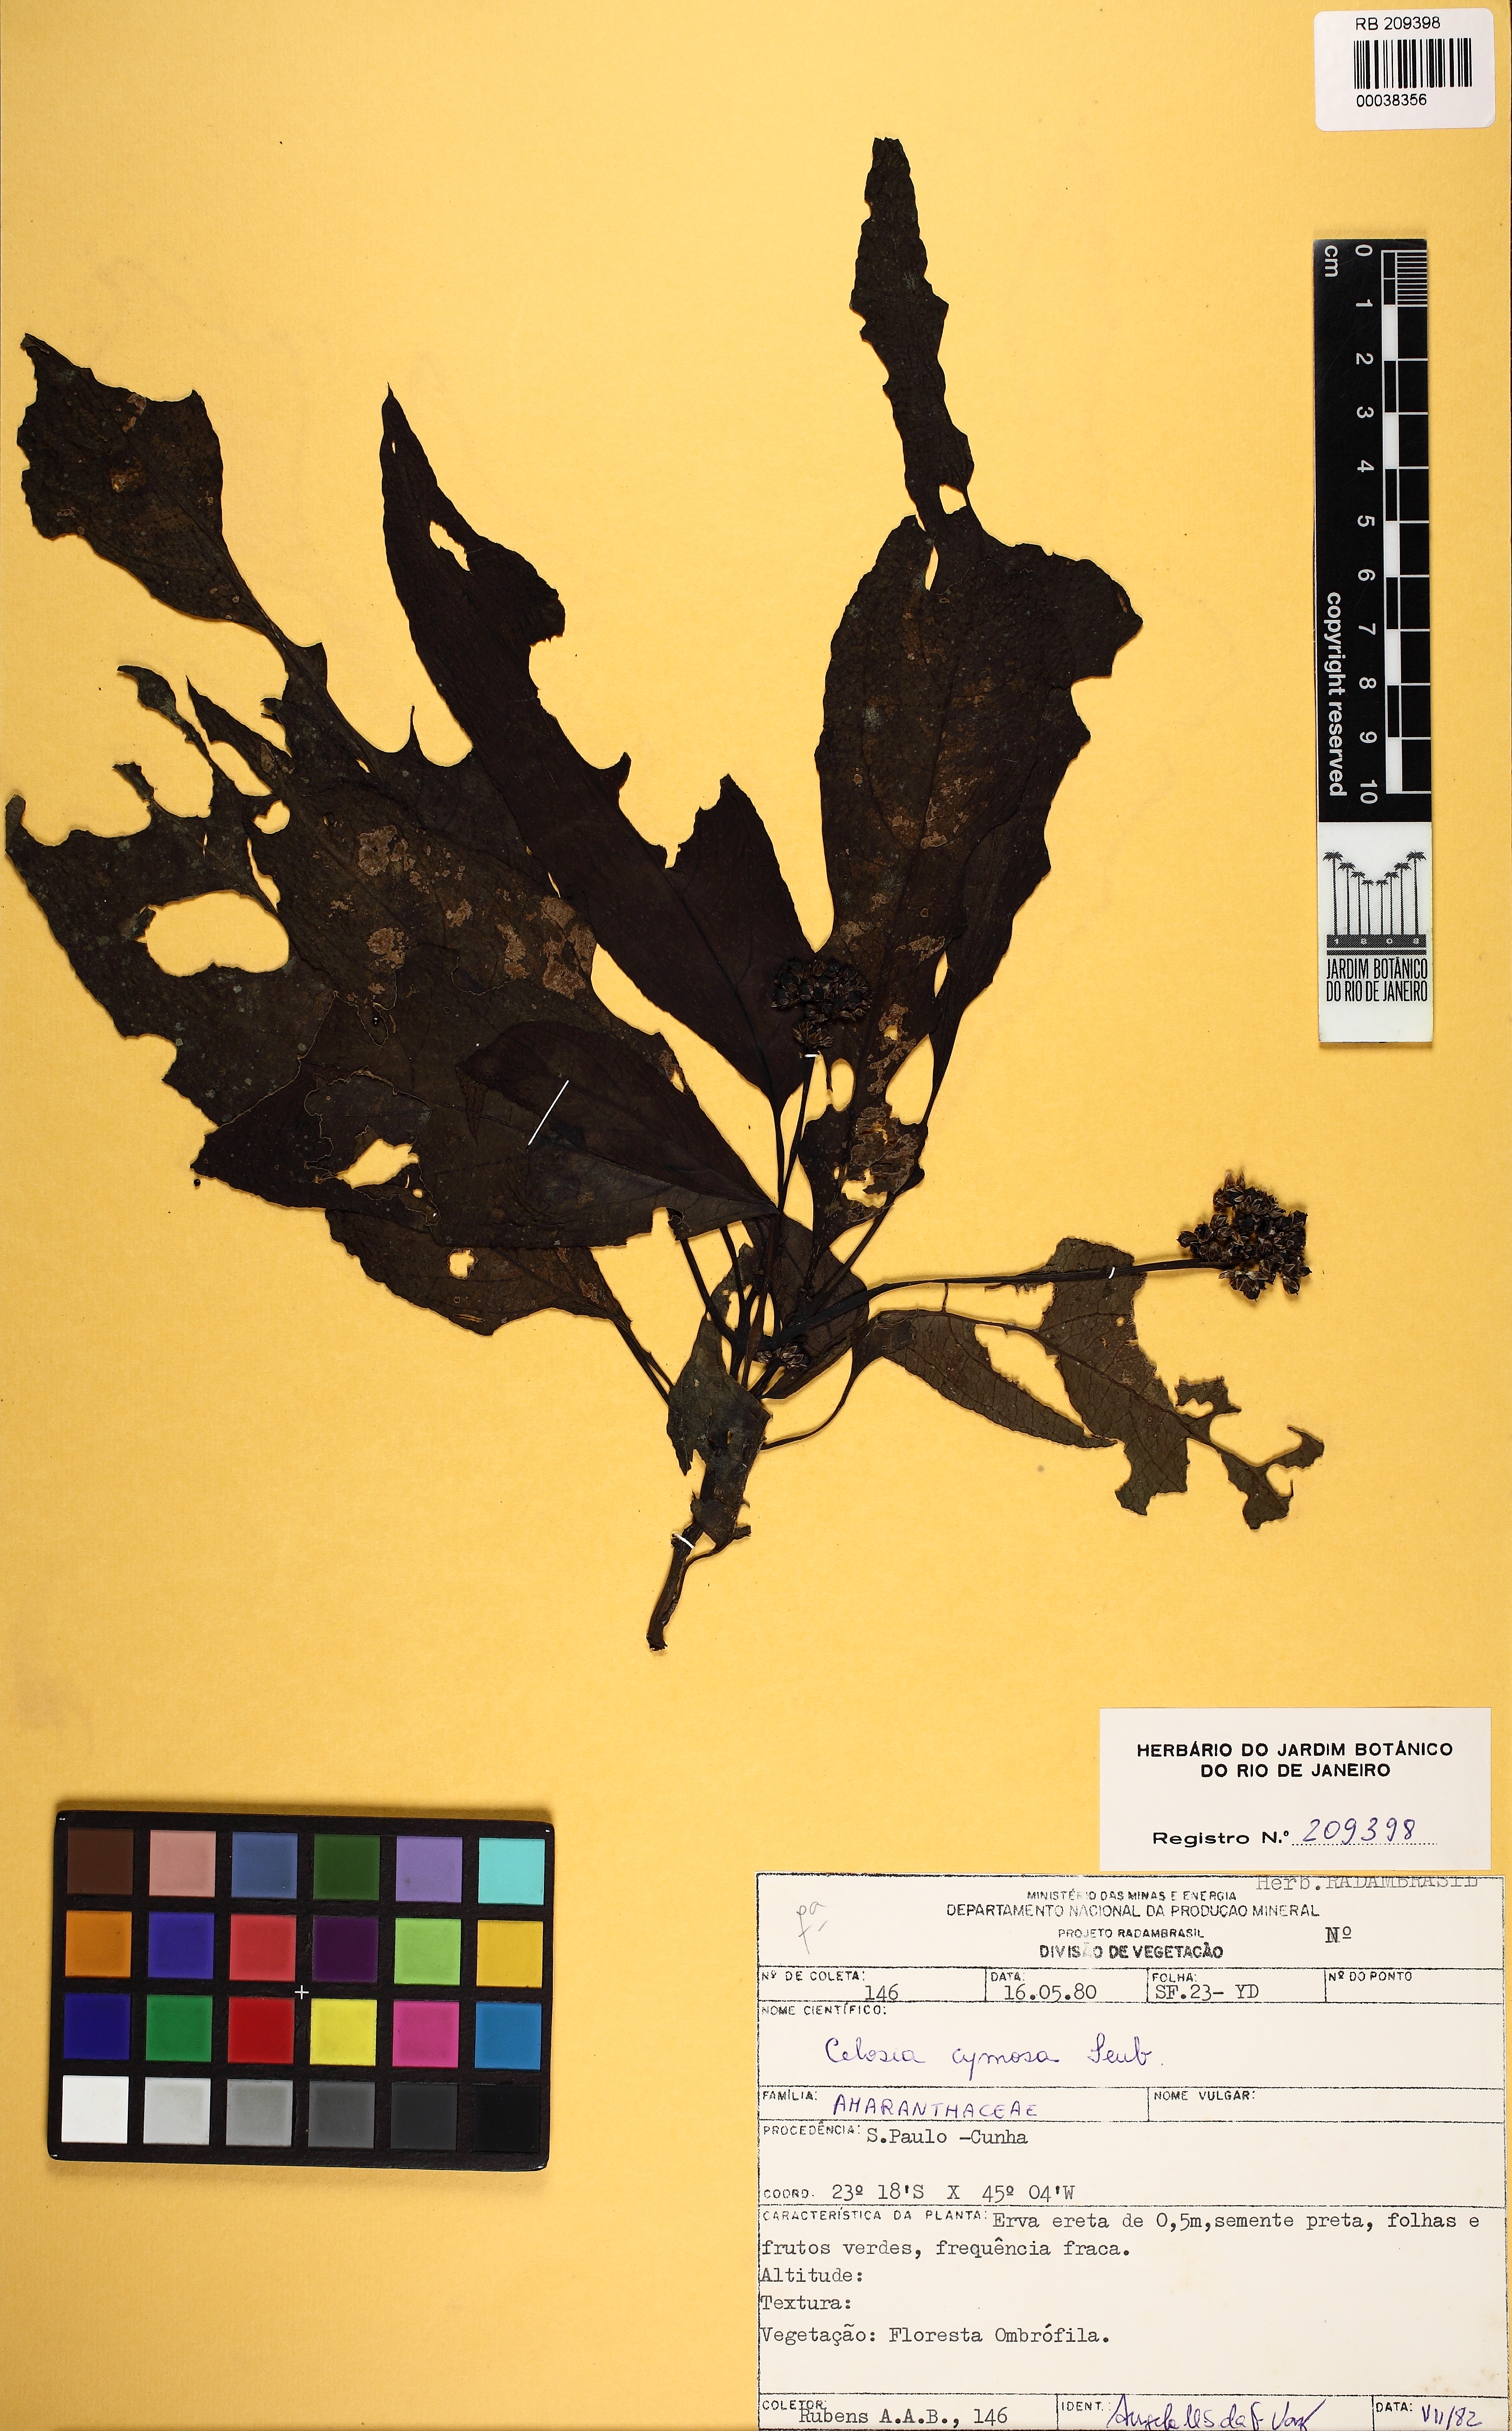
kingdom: Plantae
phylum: Tracheophyta
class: Magnoliopsida
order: Caryophyllales
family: Amaranthaceae
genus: Celosia
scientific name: Celosia corymbifera
